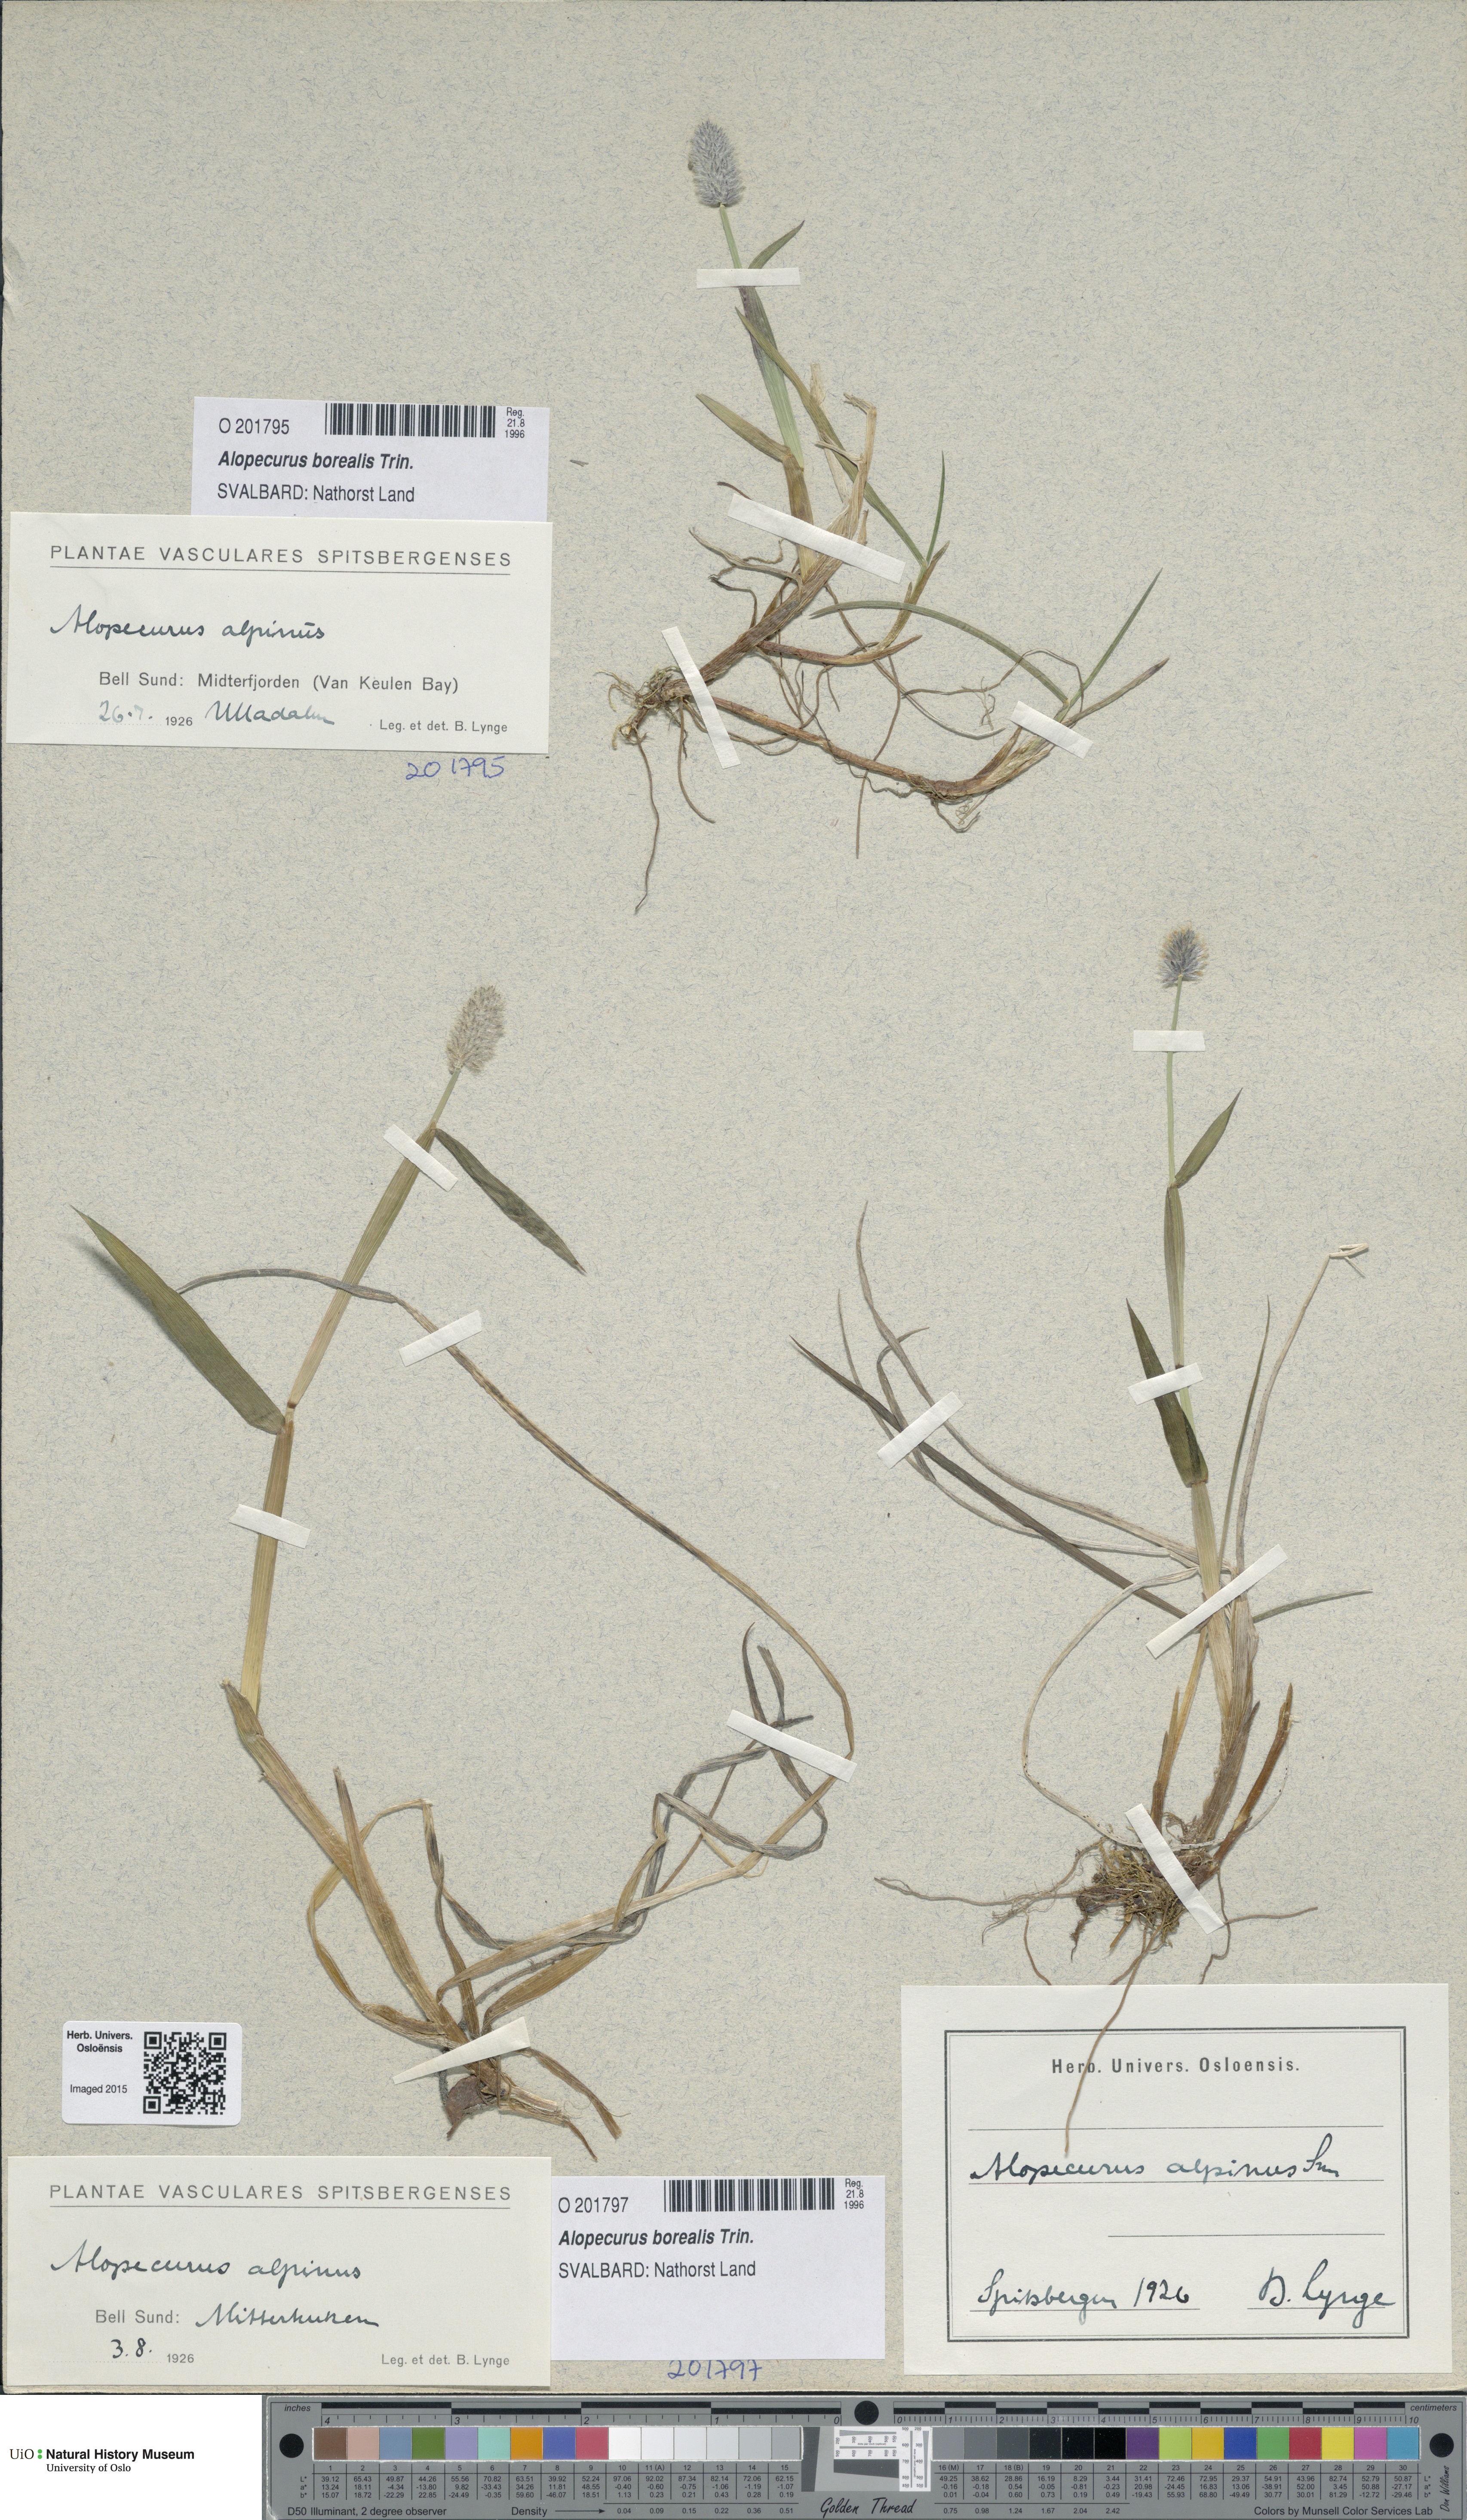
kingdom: Plantae
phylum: Tracheophyta
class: Liliopsida
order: Poales
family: Poaceae
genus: Alopecurus
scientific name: Alopecurus magellanicus
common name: Alpine foxtail
